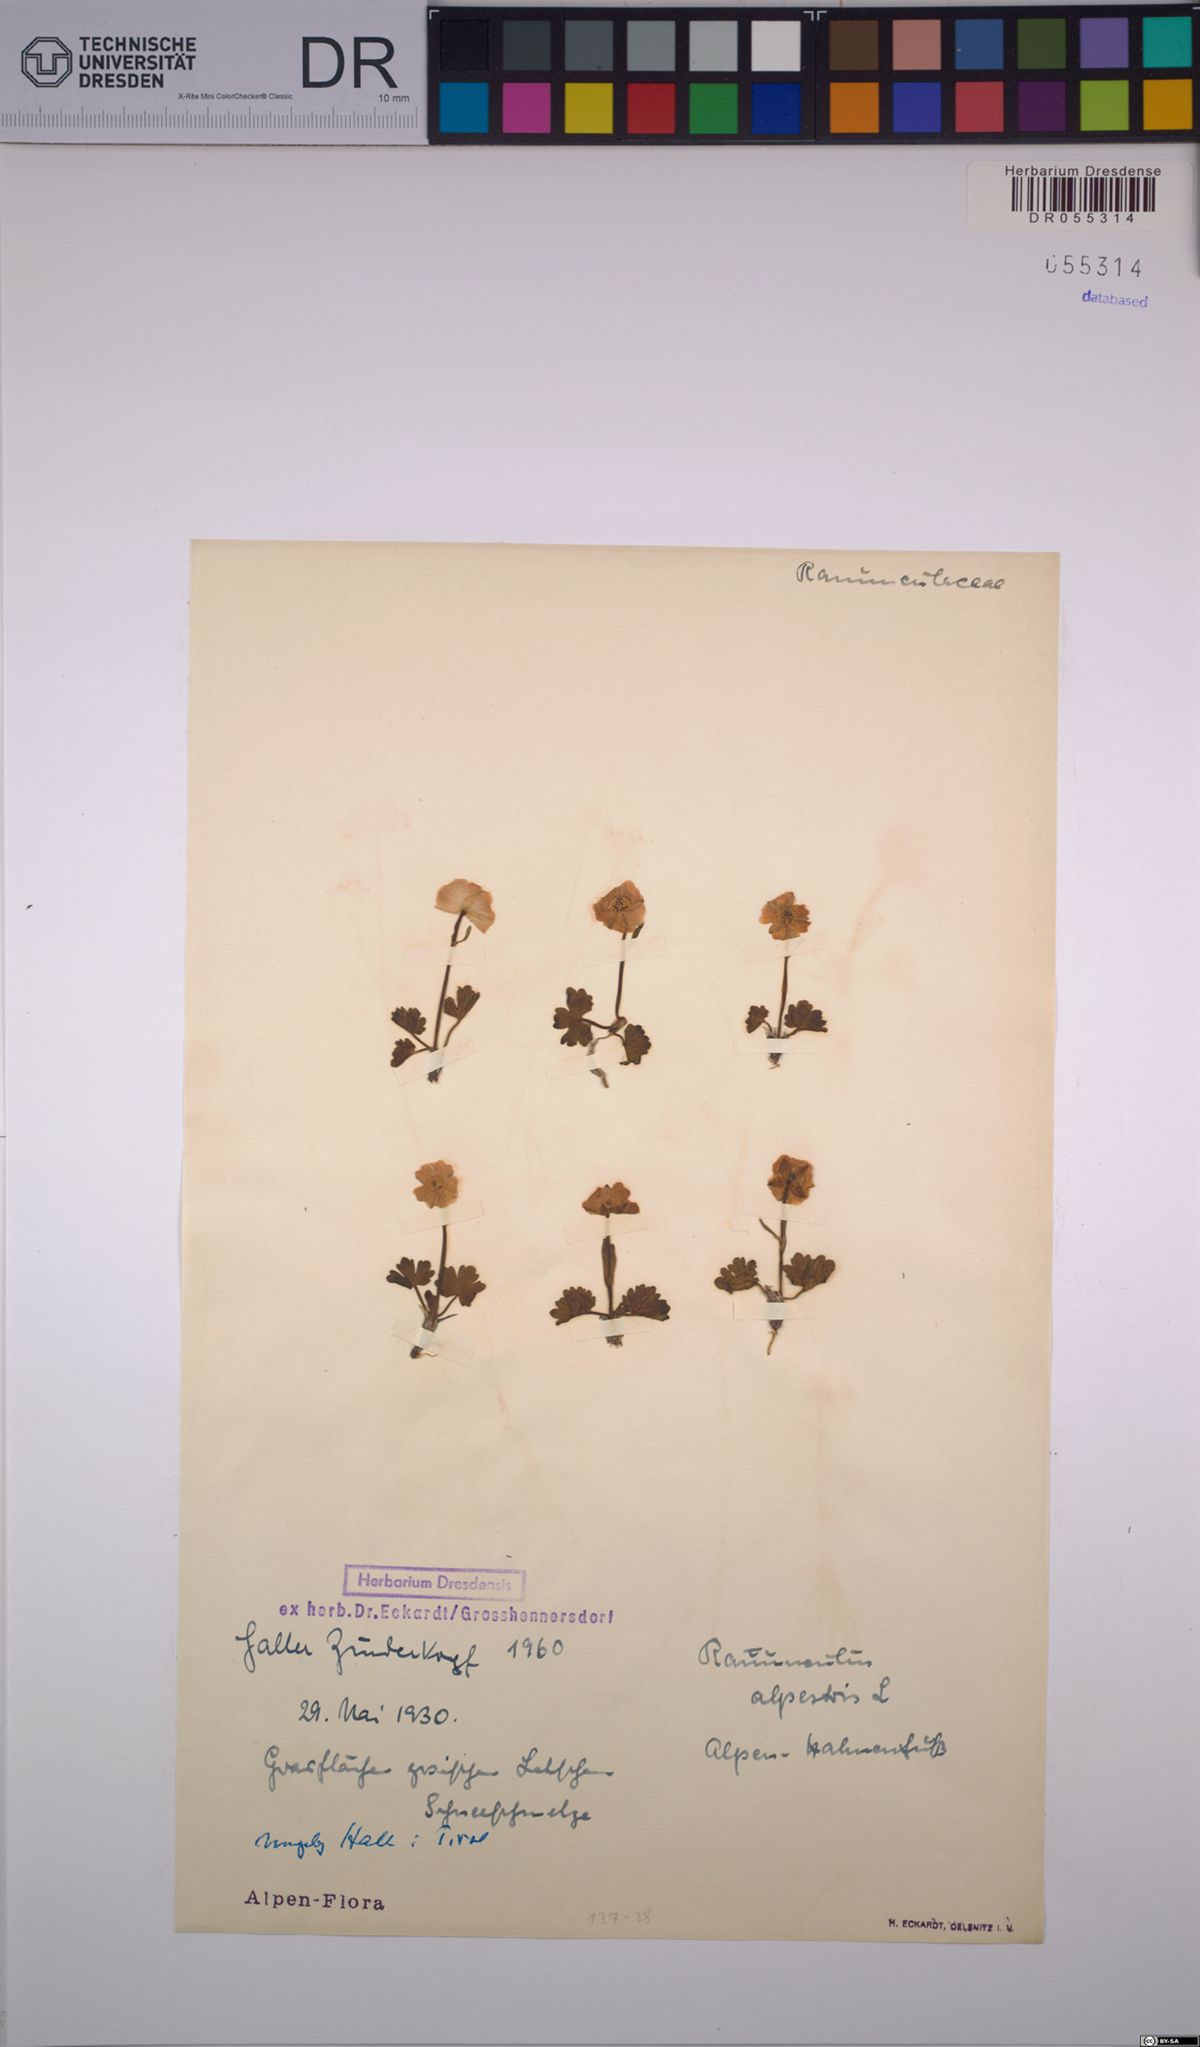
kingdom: Plantae
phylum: Tracheophyta
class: Magnoliopsida
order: Ranunculales
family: Ranunculaceae
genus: Ranunculus
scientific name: Ranunculus alpestris
